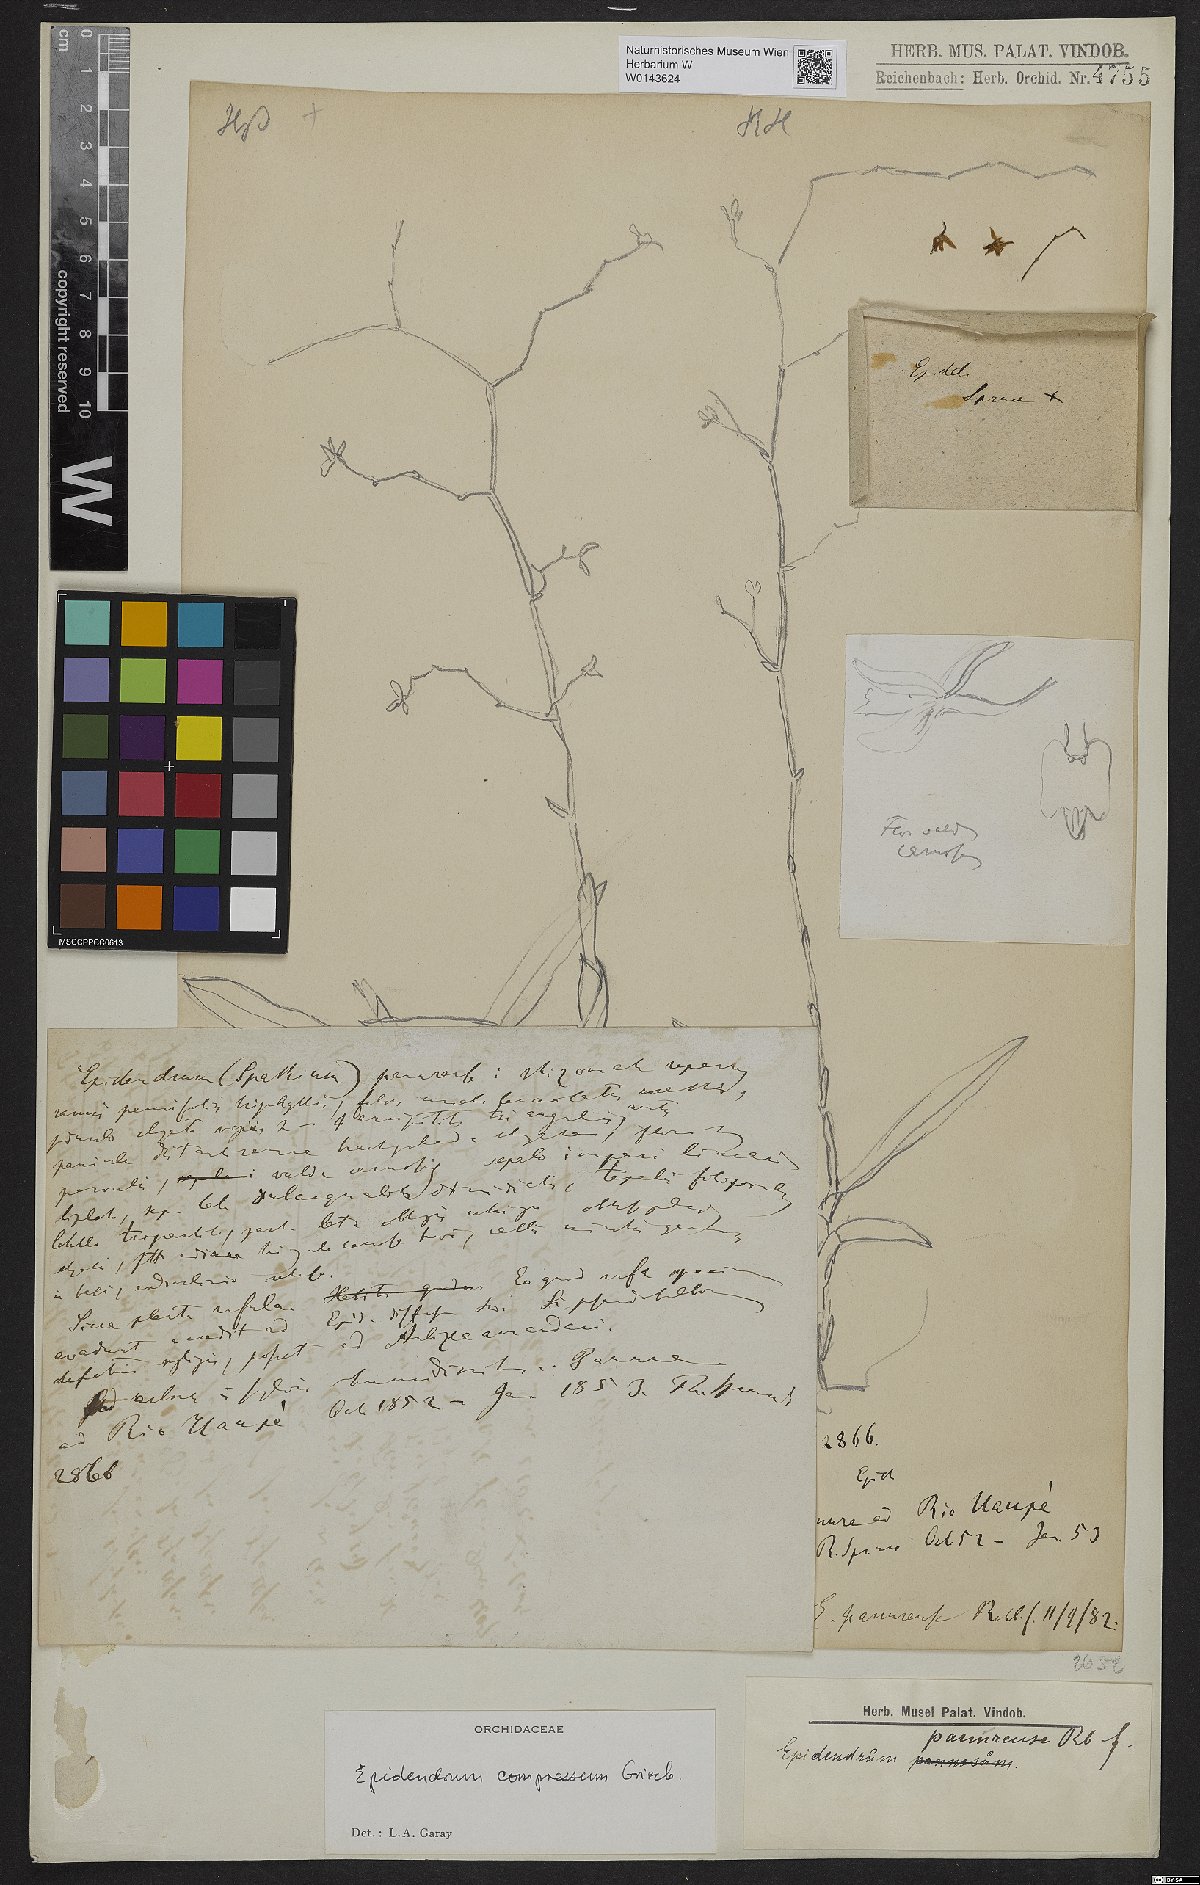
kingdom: Plantae
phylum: Tracheophyta
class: Liliopsida
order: Asparagales
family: Orchidaceae
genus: Epidendrum
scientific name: Epidendrum compressum
